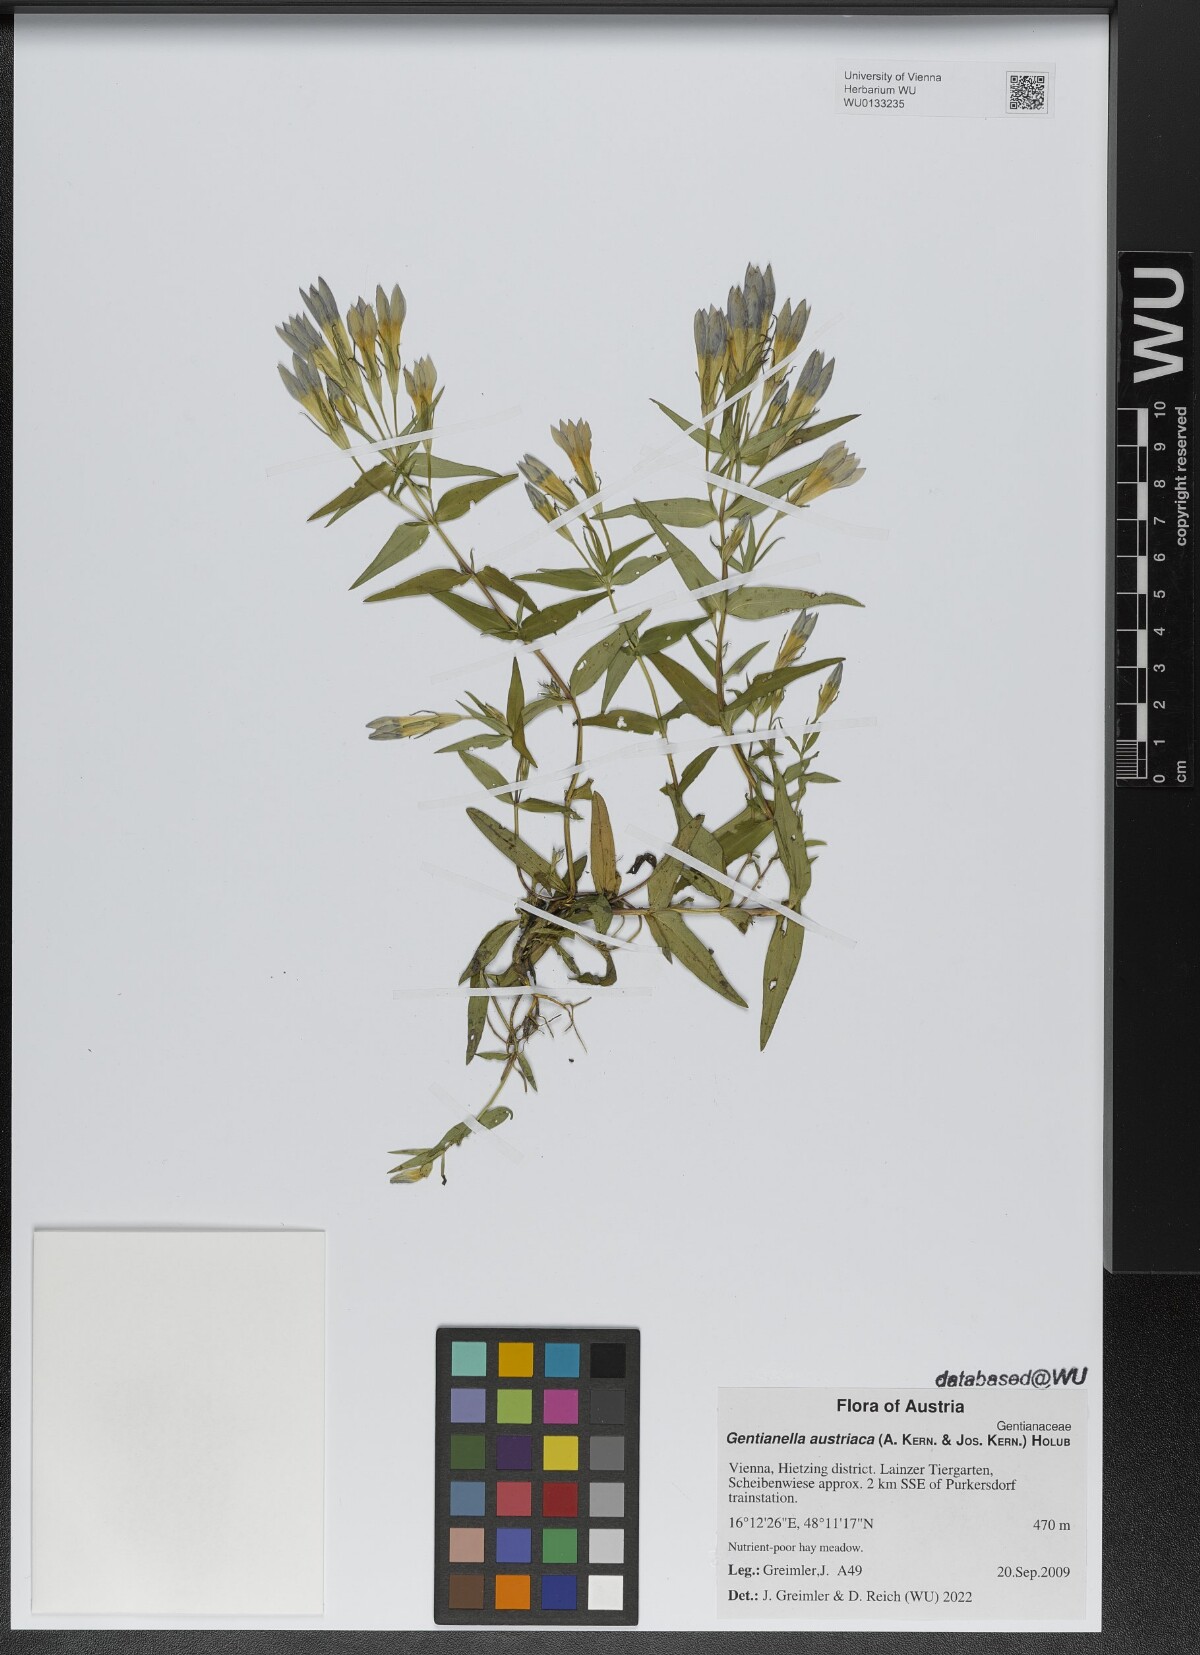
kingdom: Plantae
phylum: Tracheophyta
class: Magnoliopsida
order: Gentianales
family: Gentianaceae
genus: Gentianella
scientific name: Gentianella austriaca
